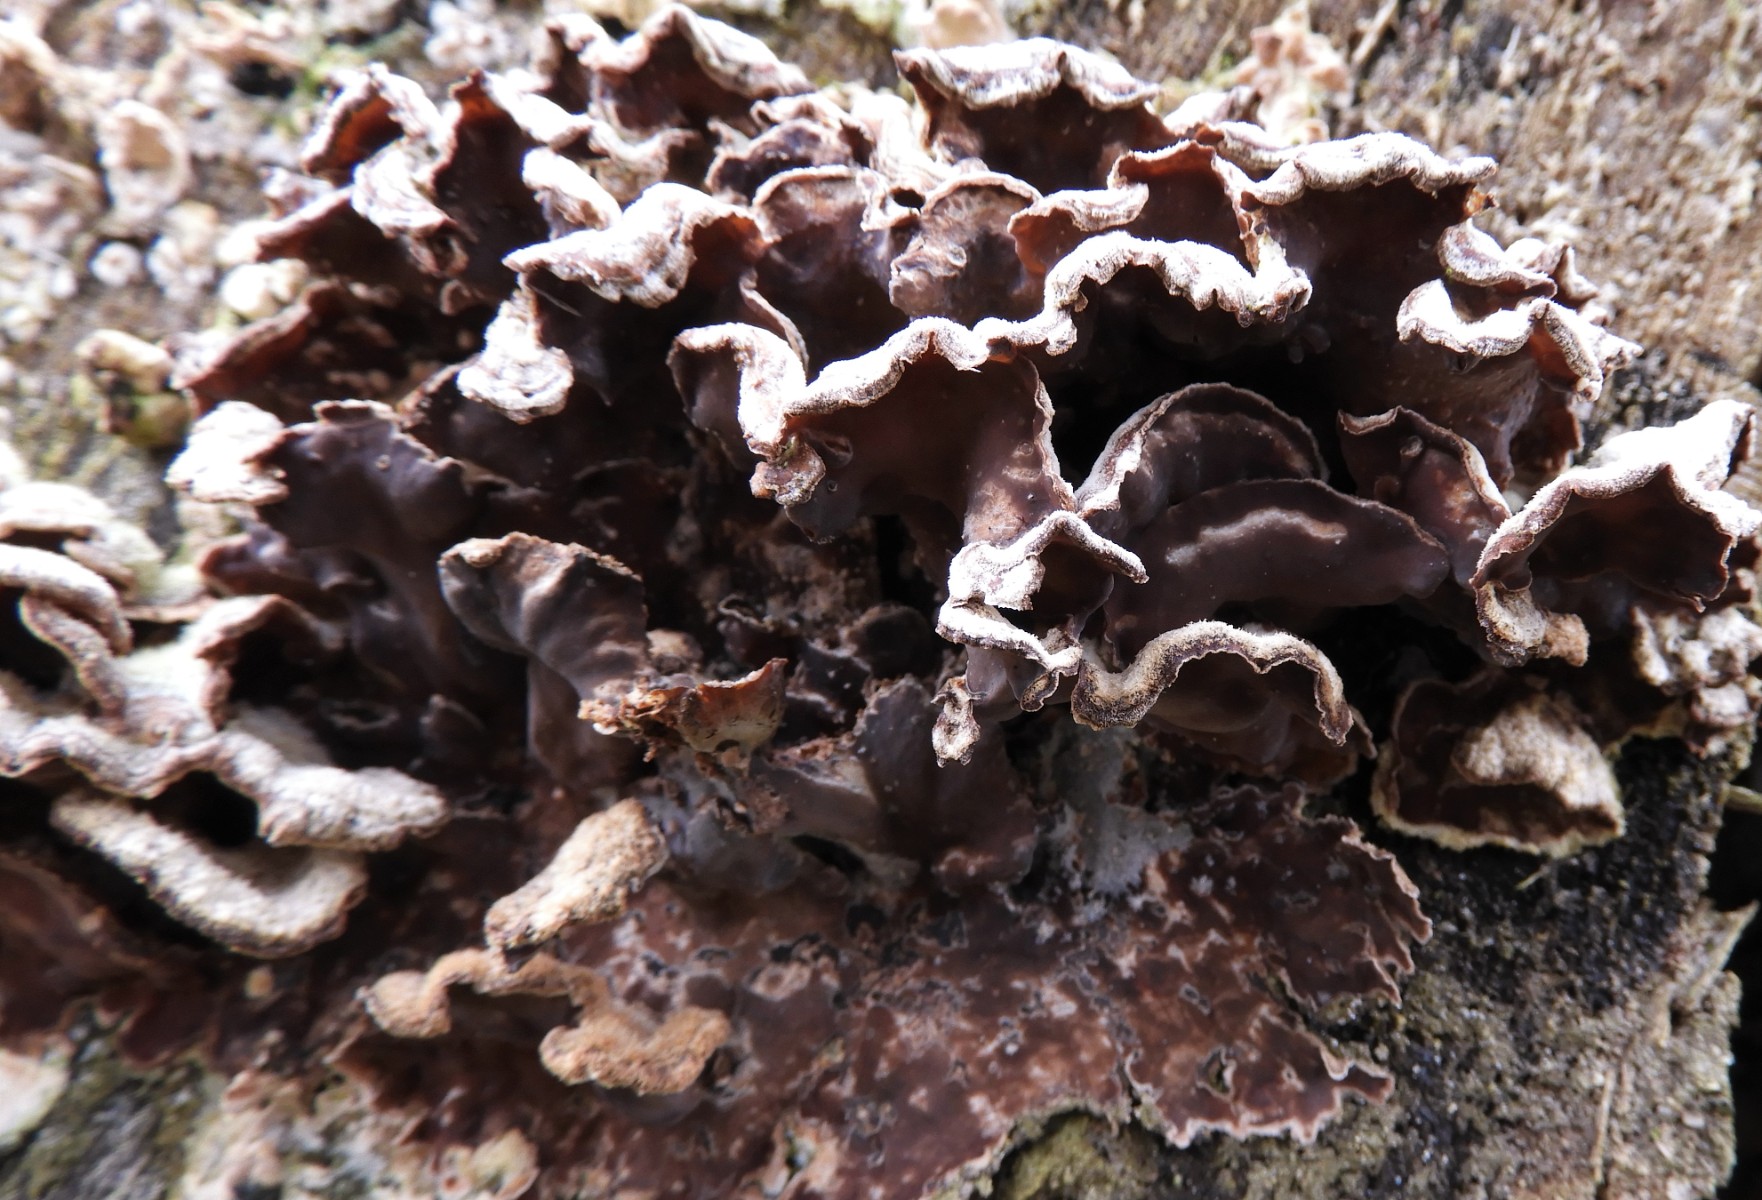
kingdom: Fungi
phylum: Basidiomycota
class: Agaricomycetes
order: Agaricales
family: Cyphellaceae
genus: Chondrostereum
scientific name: Chondrostereum purpureum
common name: purpurlædersvamp
